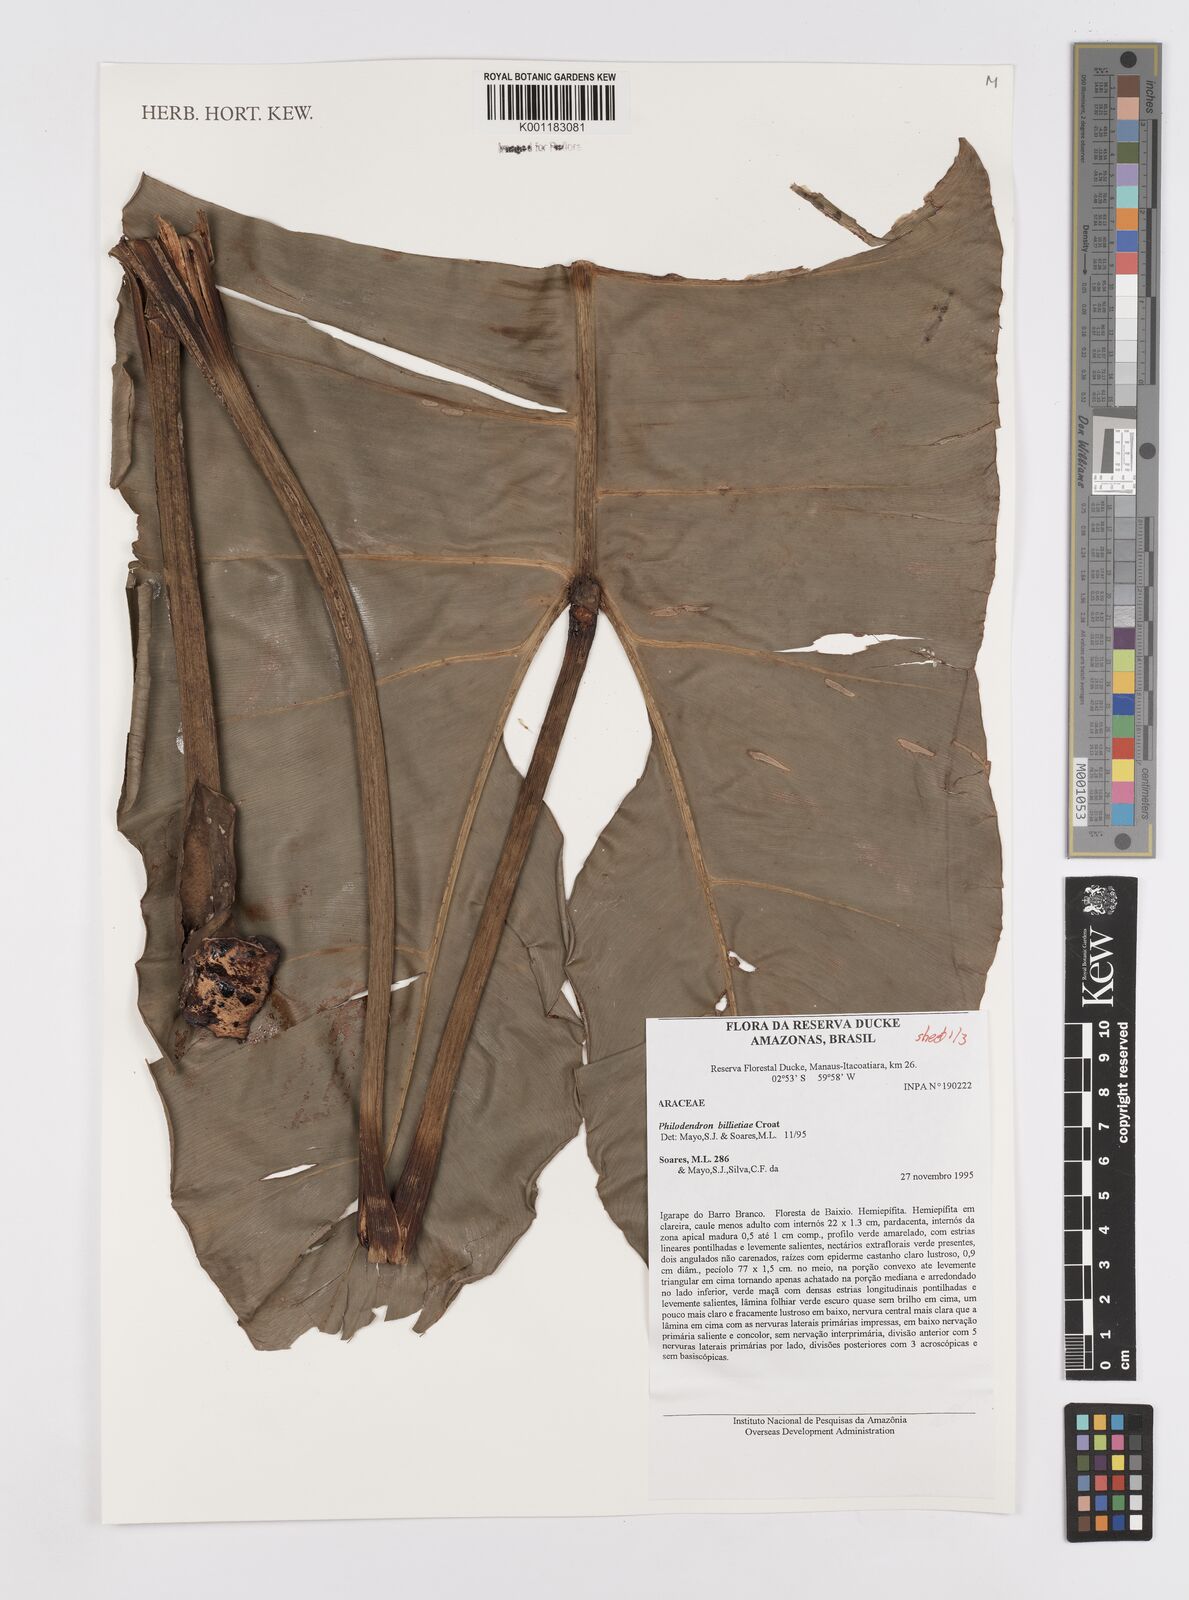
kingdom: Plantae
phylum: Tracheophyta
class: Liliopsida
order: Alismatales
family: Araceae
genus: Philodendron
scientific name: Philodendron billietiae
